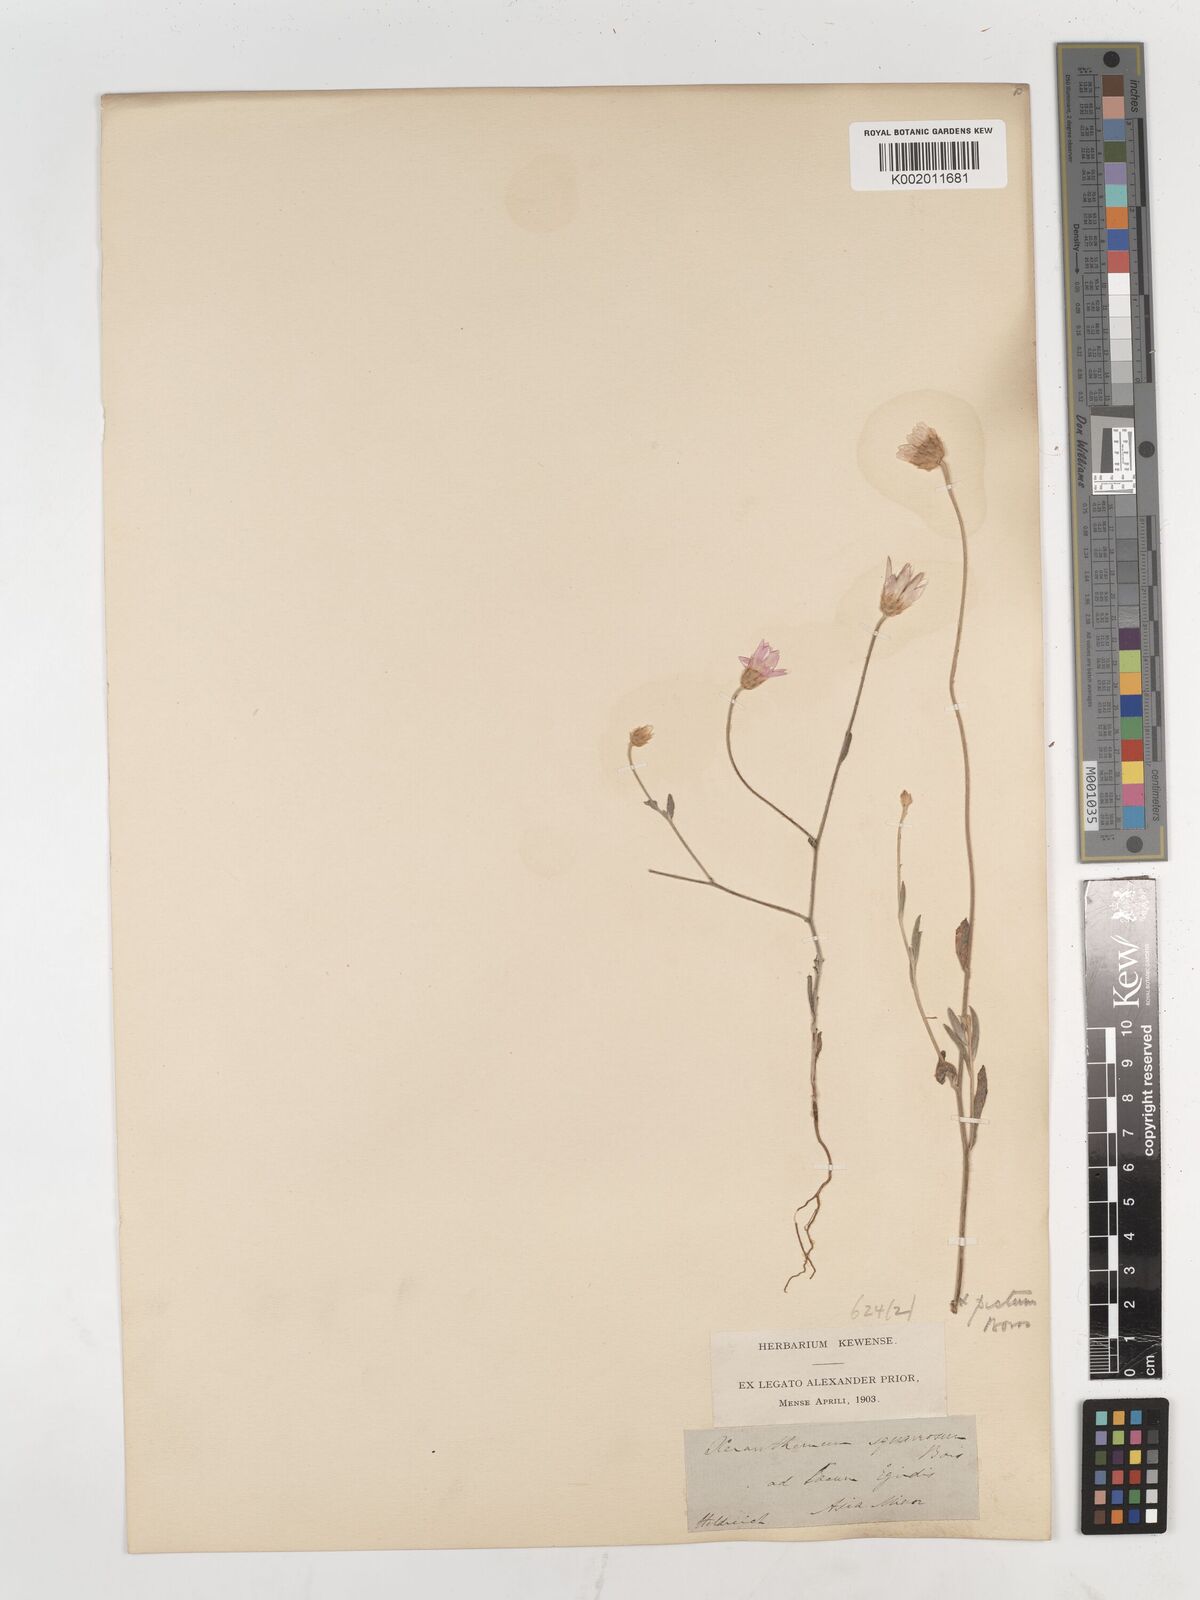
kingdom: Plantae
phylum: Tracheophyta
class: Magnoliopsida
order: Asterales
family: Asteraceae
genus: Xeranthemum
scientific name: Xeranthemum squarrosum
